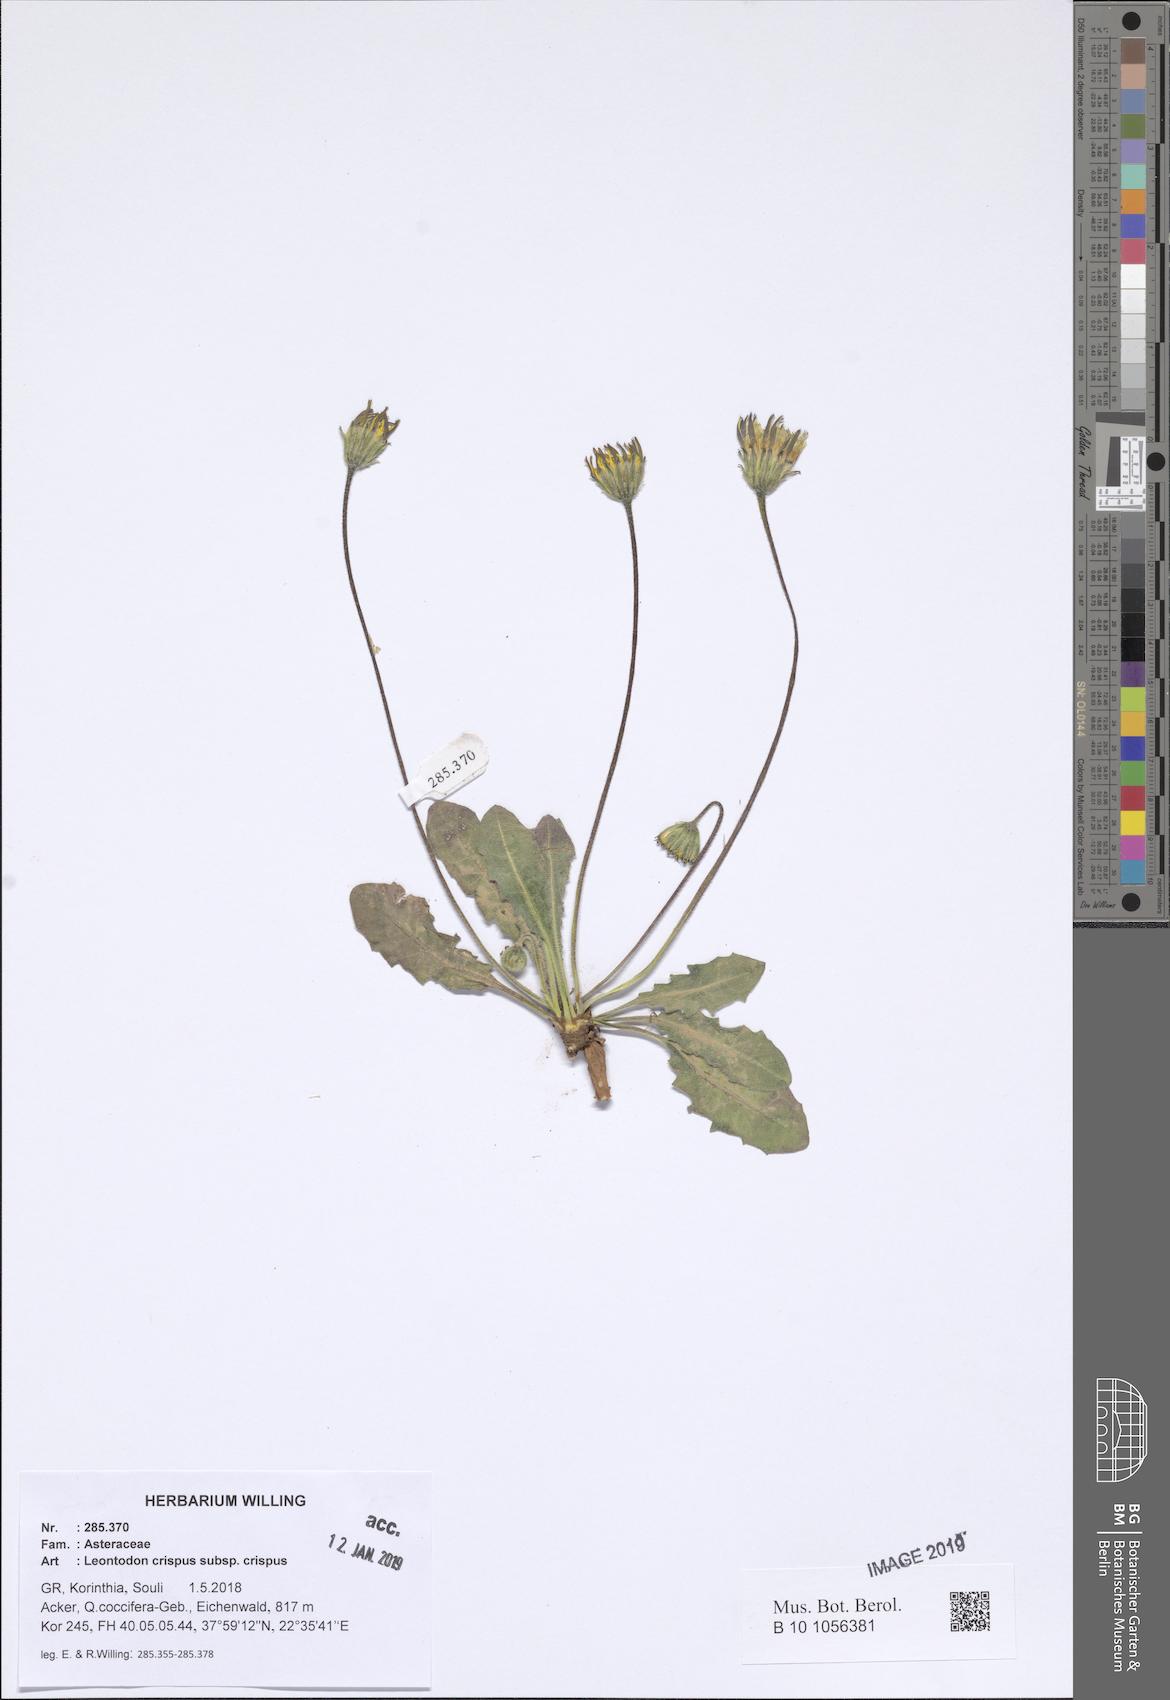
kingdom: Plantae
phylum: Tracheophyta
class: Magnoliopsida
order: Asterales
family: Asteraceae
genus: Leontodon
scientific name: Leontodon hyoseroides
